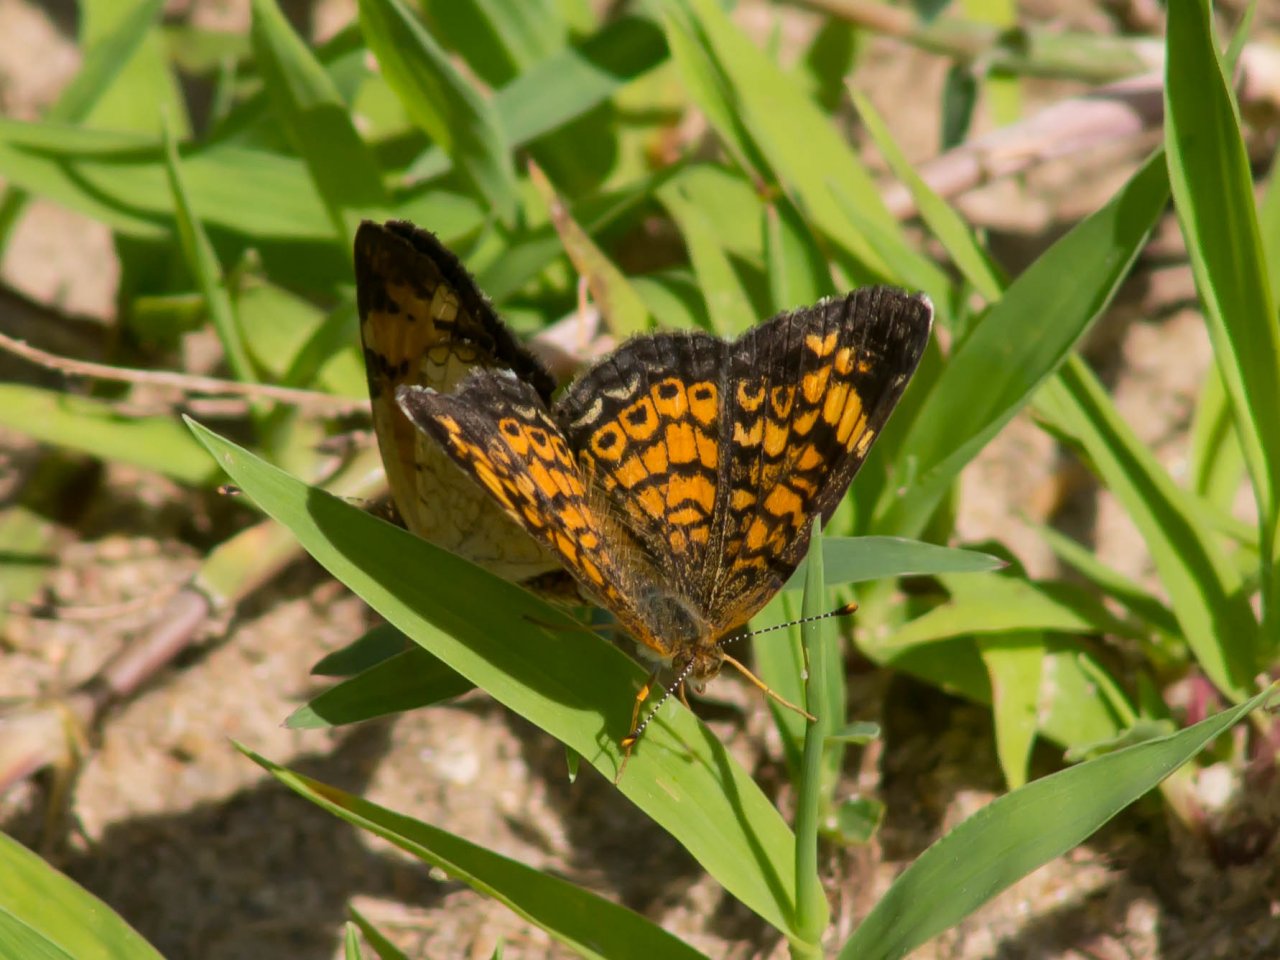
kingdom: Animalia
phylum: Arthropoda
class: Insecta
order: Lepidoptera
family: Nymphalidae
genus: Phyciodes
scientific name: Phyciodes tharos
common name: Pearl Crescent
